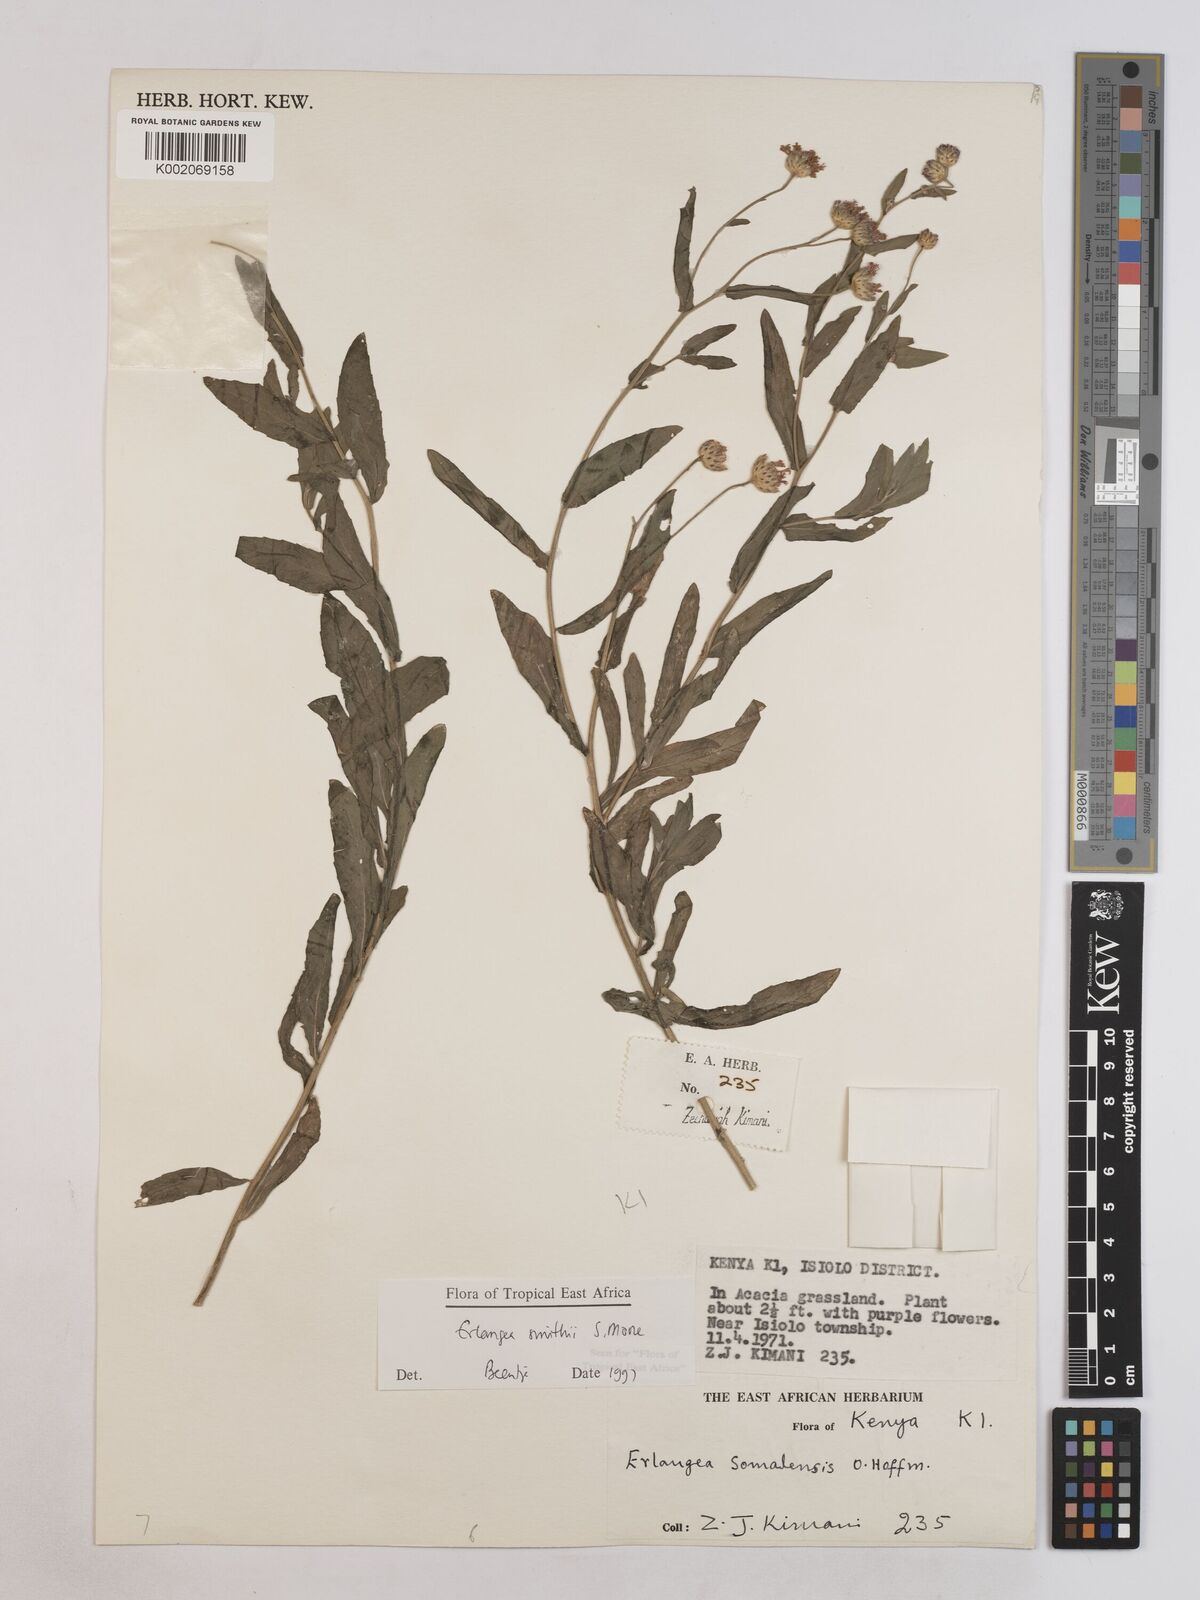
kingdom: Plantae
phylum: Tracheophyta
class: Magnoliopsida
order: Asterales
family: Asteraceae
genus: Erlangea
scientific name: Erlangea smithii
